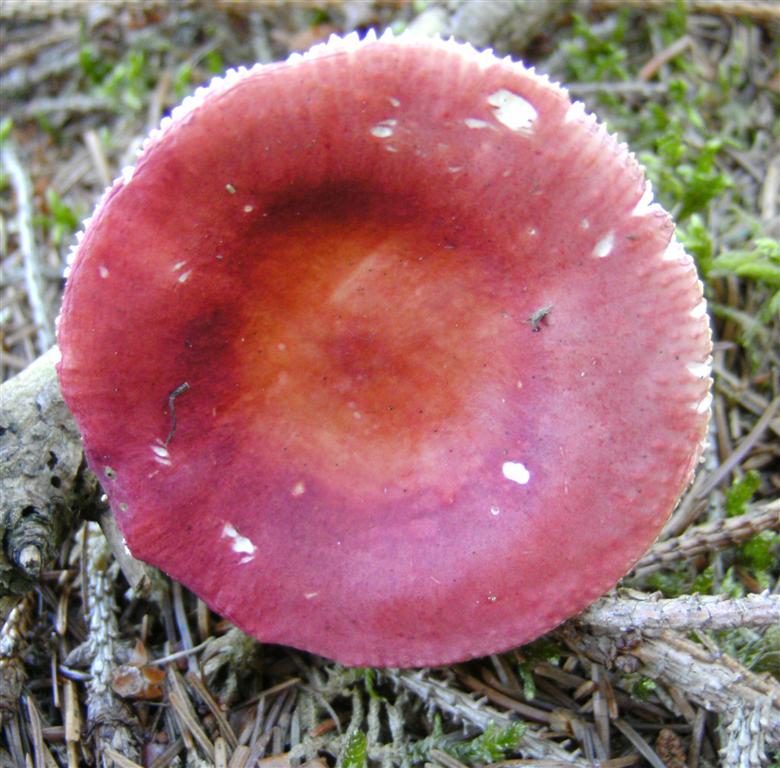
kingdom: Fungi
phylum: Basidiomycota
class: Agaricomycetes
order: Russulales
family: Russulaceae
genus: Russula
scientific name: Russula velenovskyi
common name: orangerød skørhat
